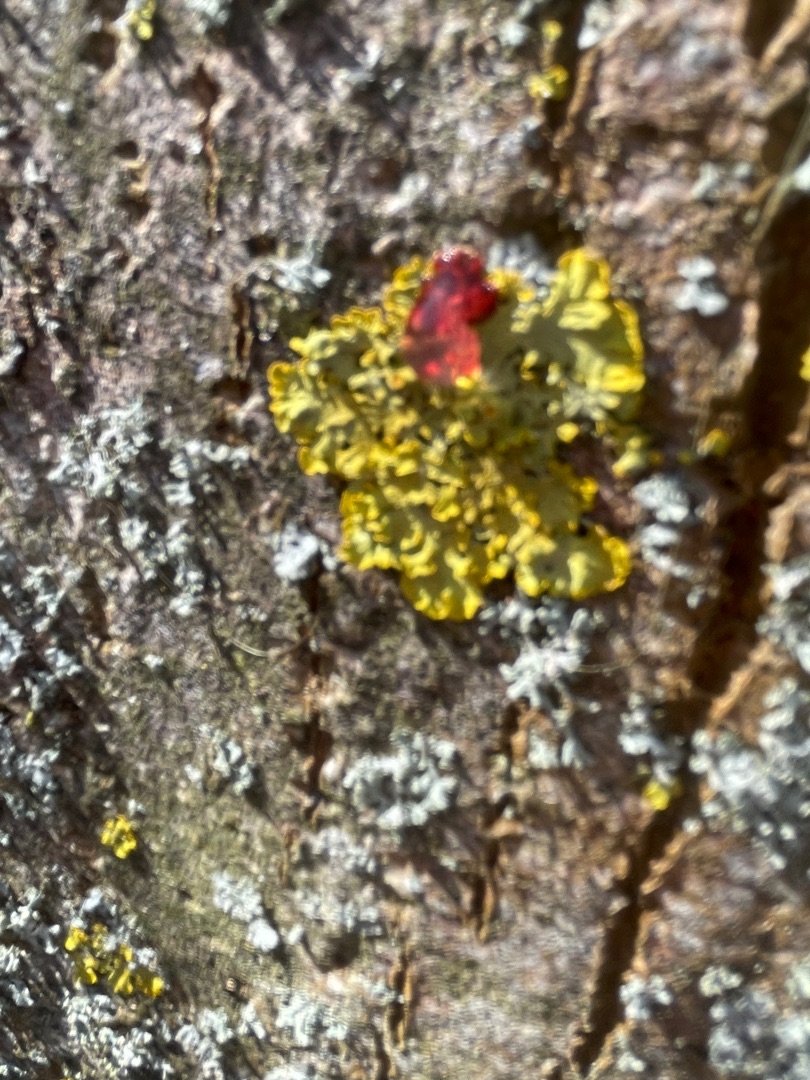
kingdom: Fungi
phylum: Ascomycota
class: Lecanoromycetes
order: Teloschistales
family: Teloschistaceae
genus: Xanthoria
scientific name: Xanthoria parietina
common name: Almindelig væggelav
